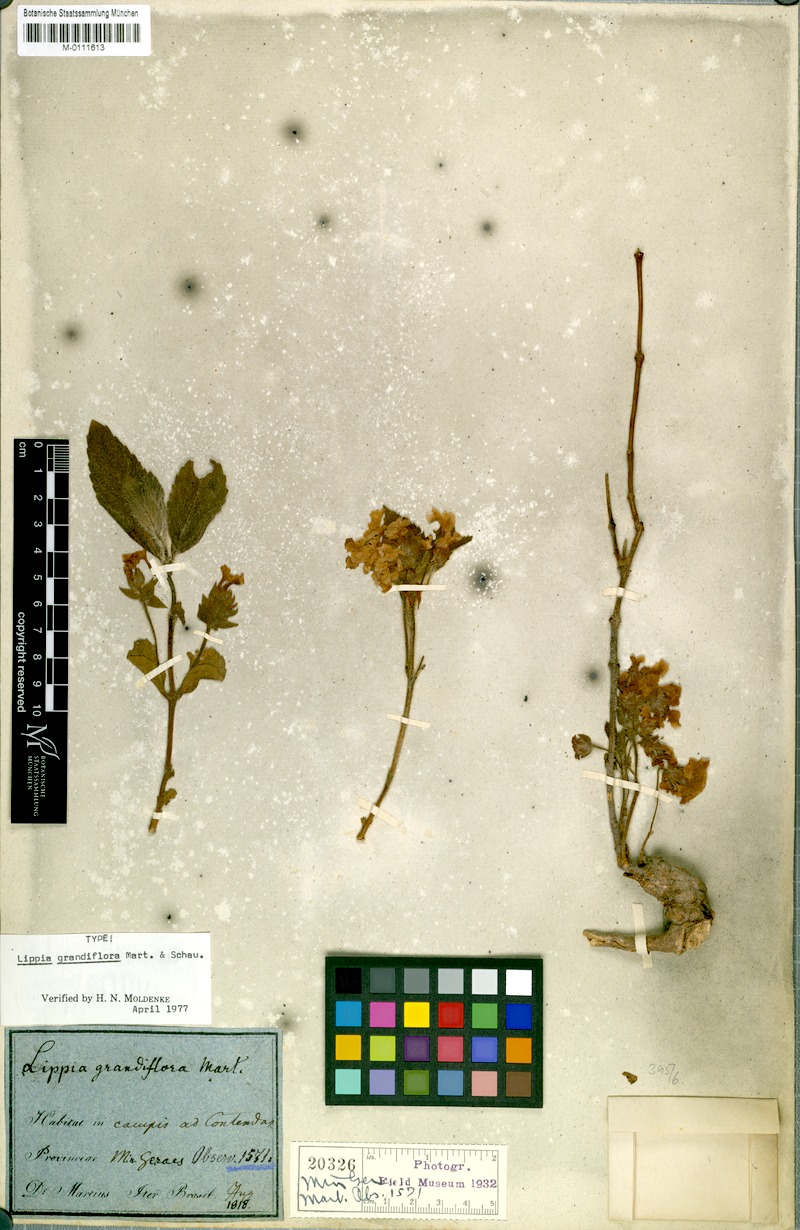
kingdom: Plantae
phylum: Tracheophyta
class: Magnoliopsida
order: Lamiales
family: Verbenaceae
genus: Lippia
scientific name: Lippia grandiflora
